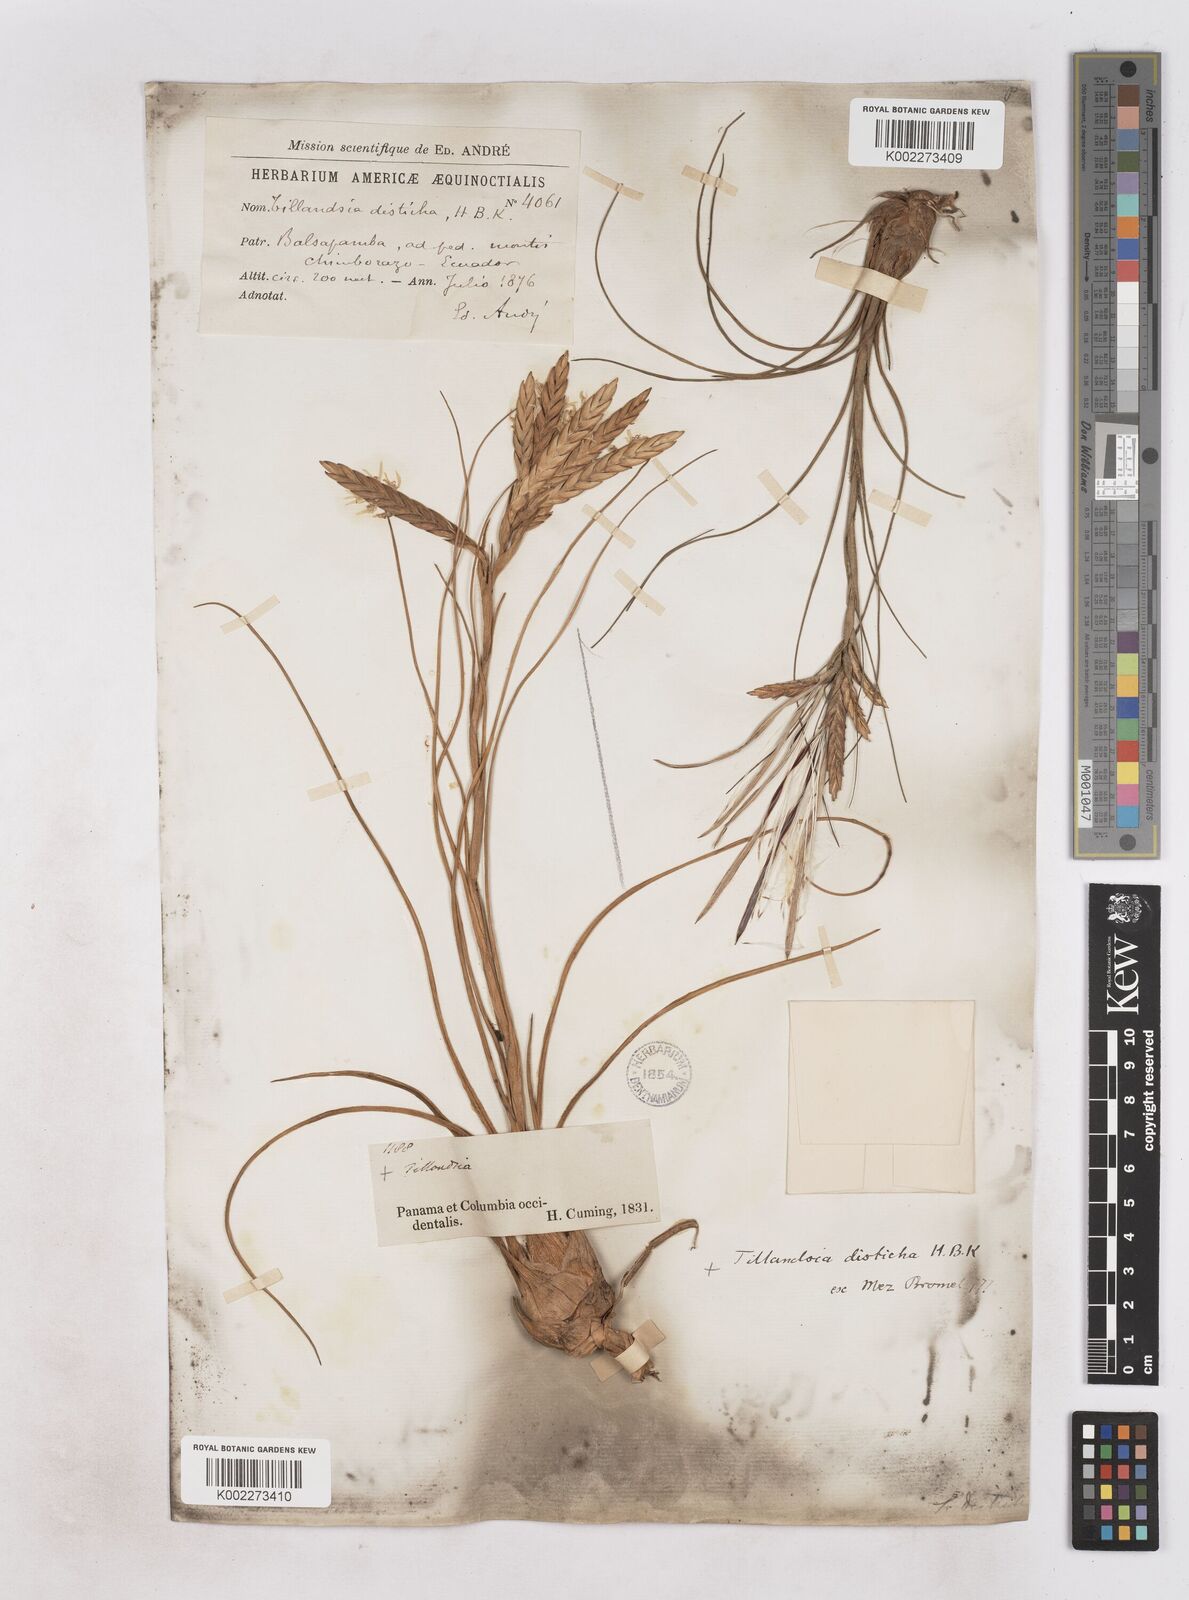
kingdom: Plantae
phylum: Tracheophyta
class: Liliopsida
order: Poales
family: Bromeliaceae
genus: Tillandsia
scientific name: Tillandsia
